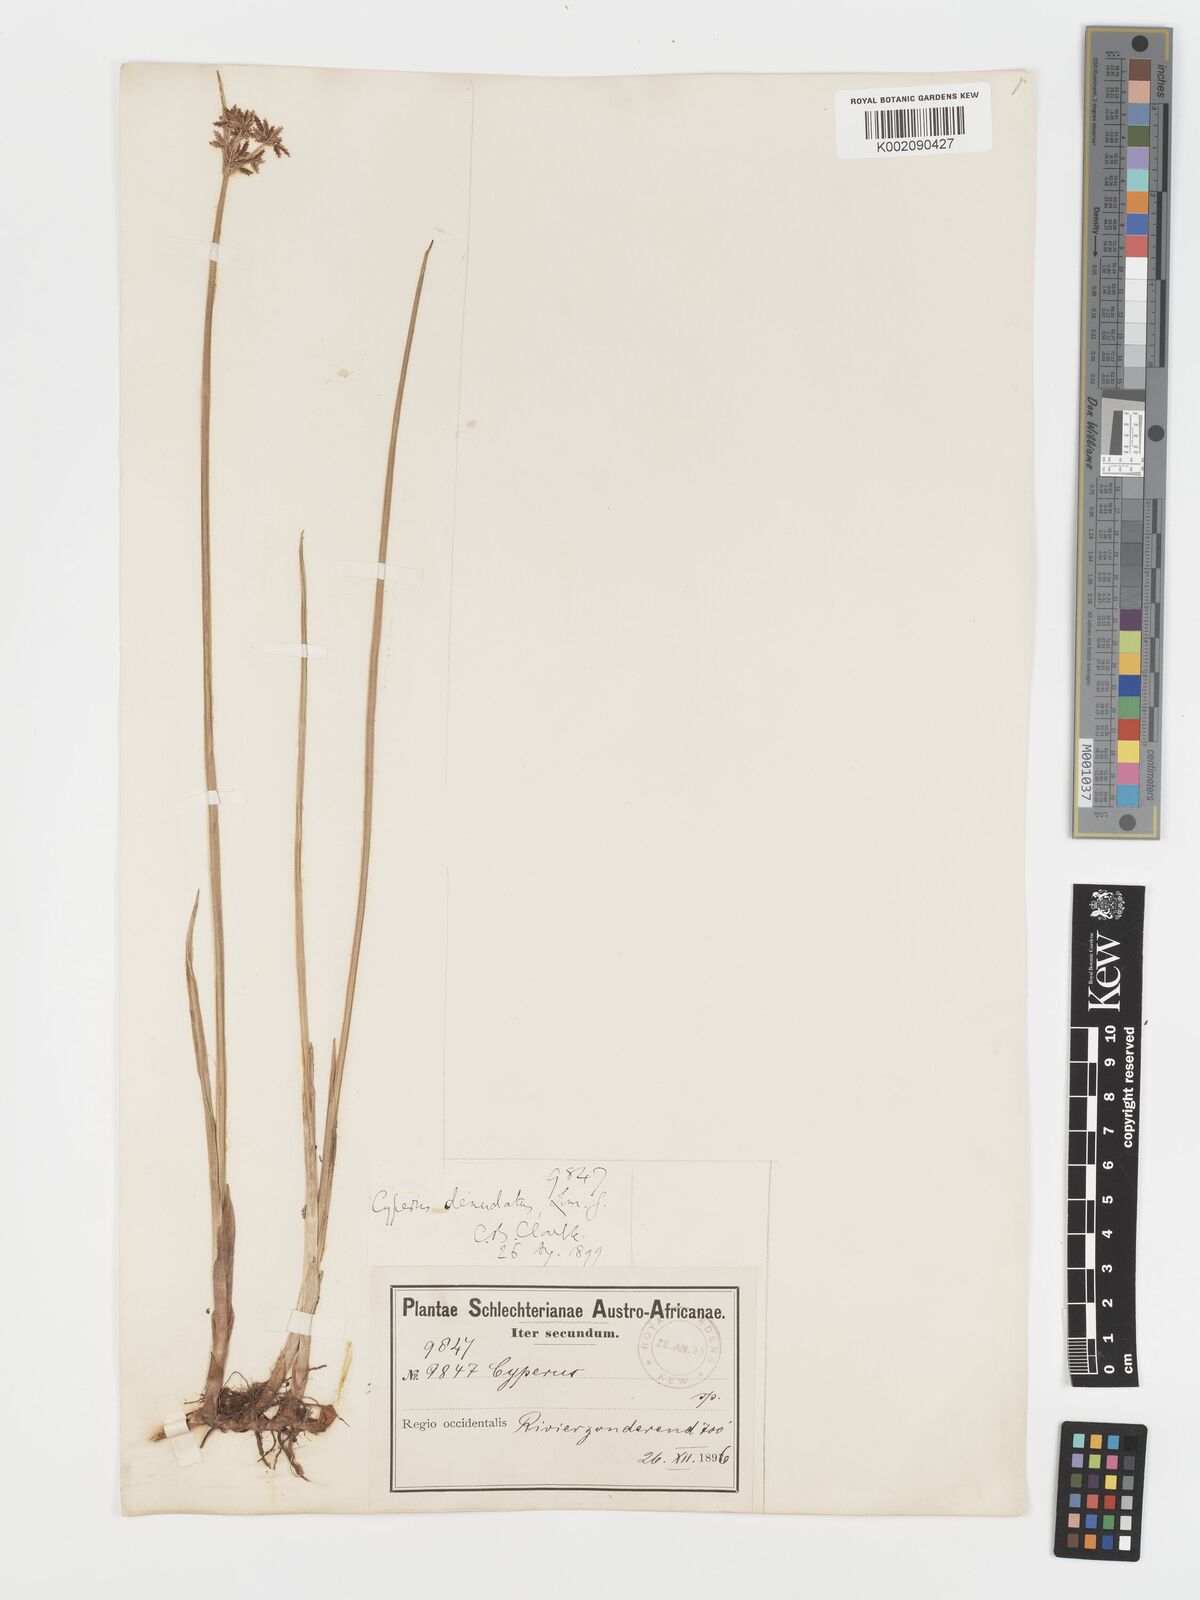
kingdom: Plantae
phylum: Tracheophyta
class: Liliopsida
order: Poales
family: Cyperaceae
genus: Cyperus
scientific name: Cyperus denudatus
